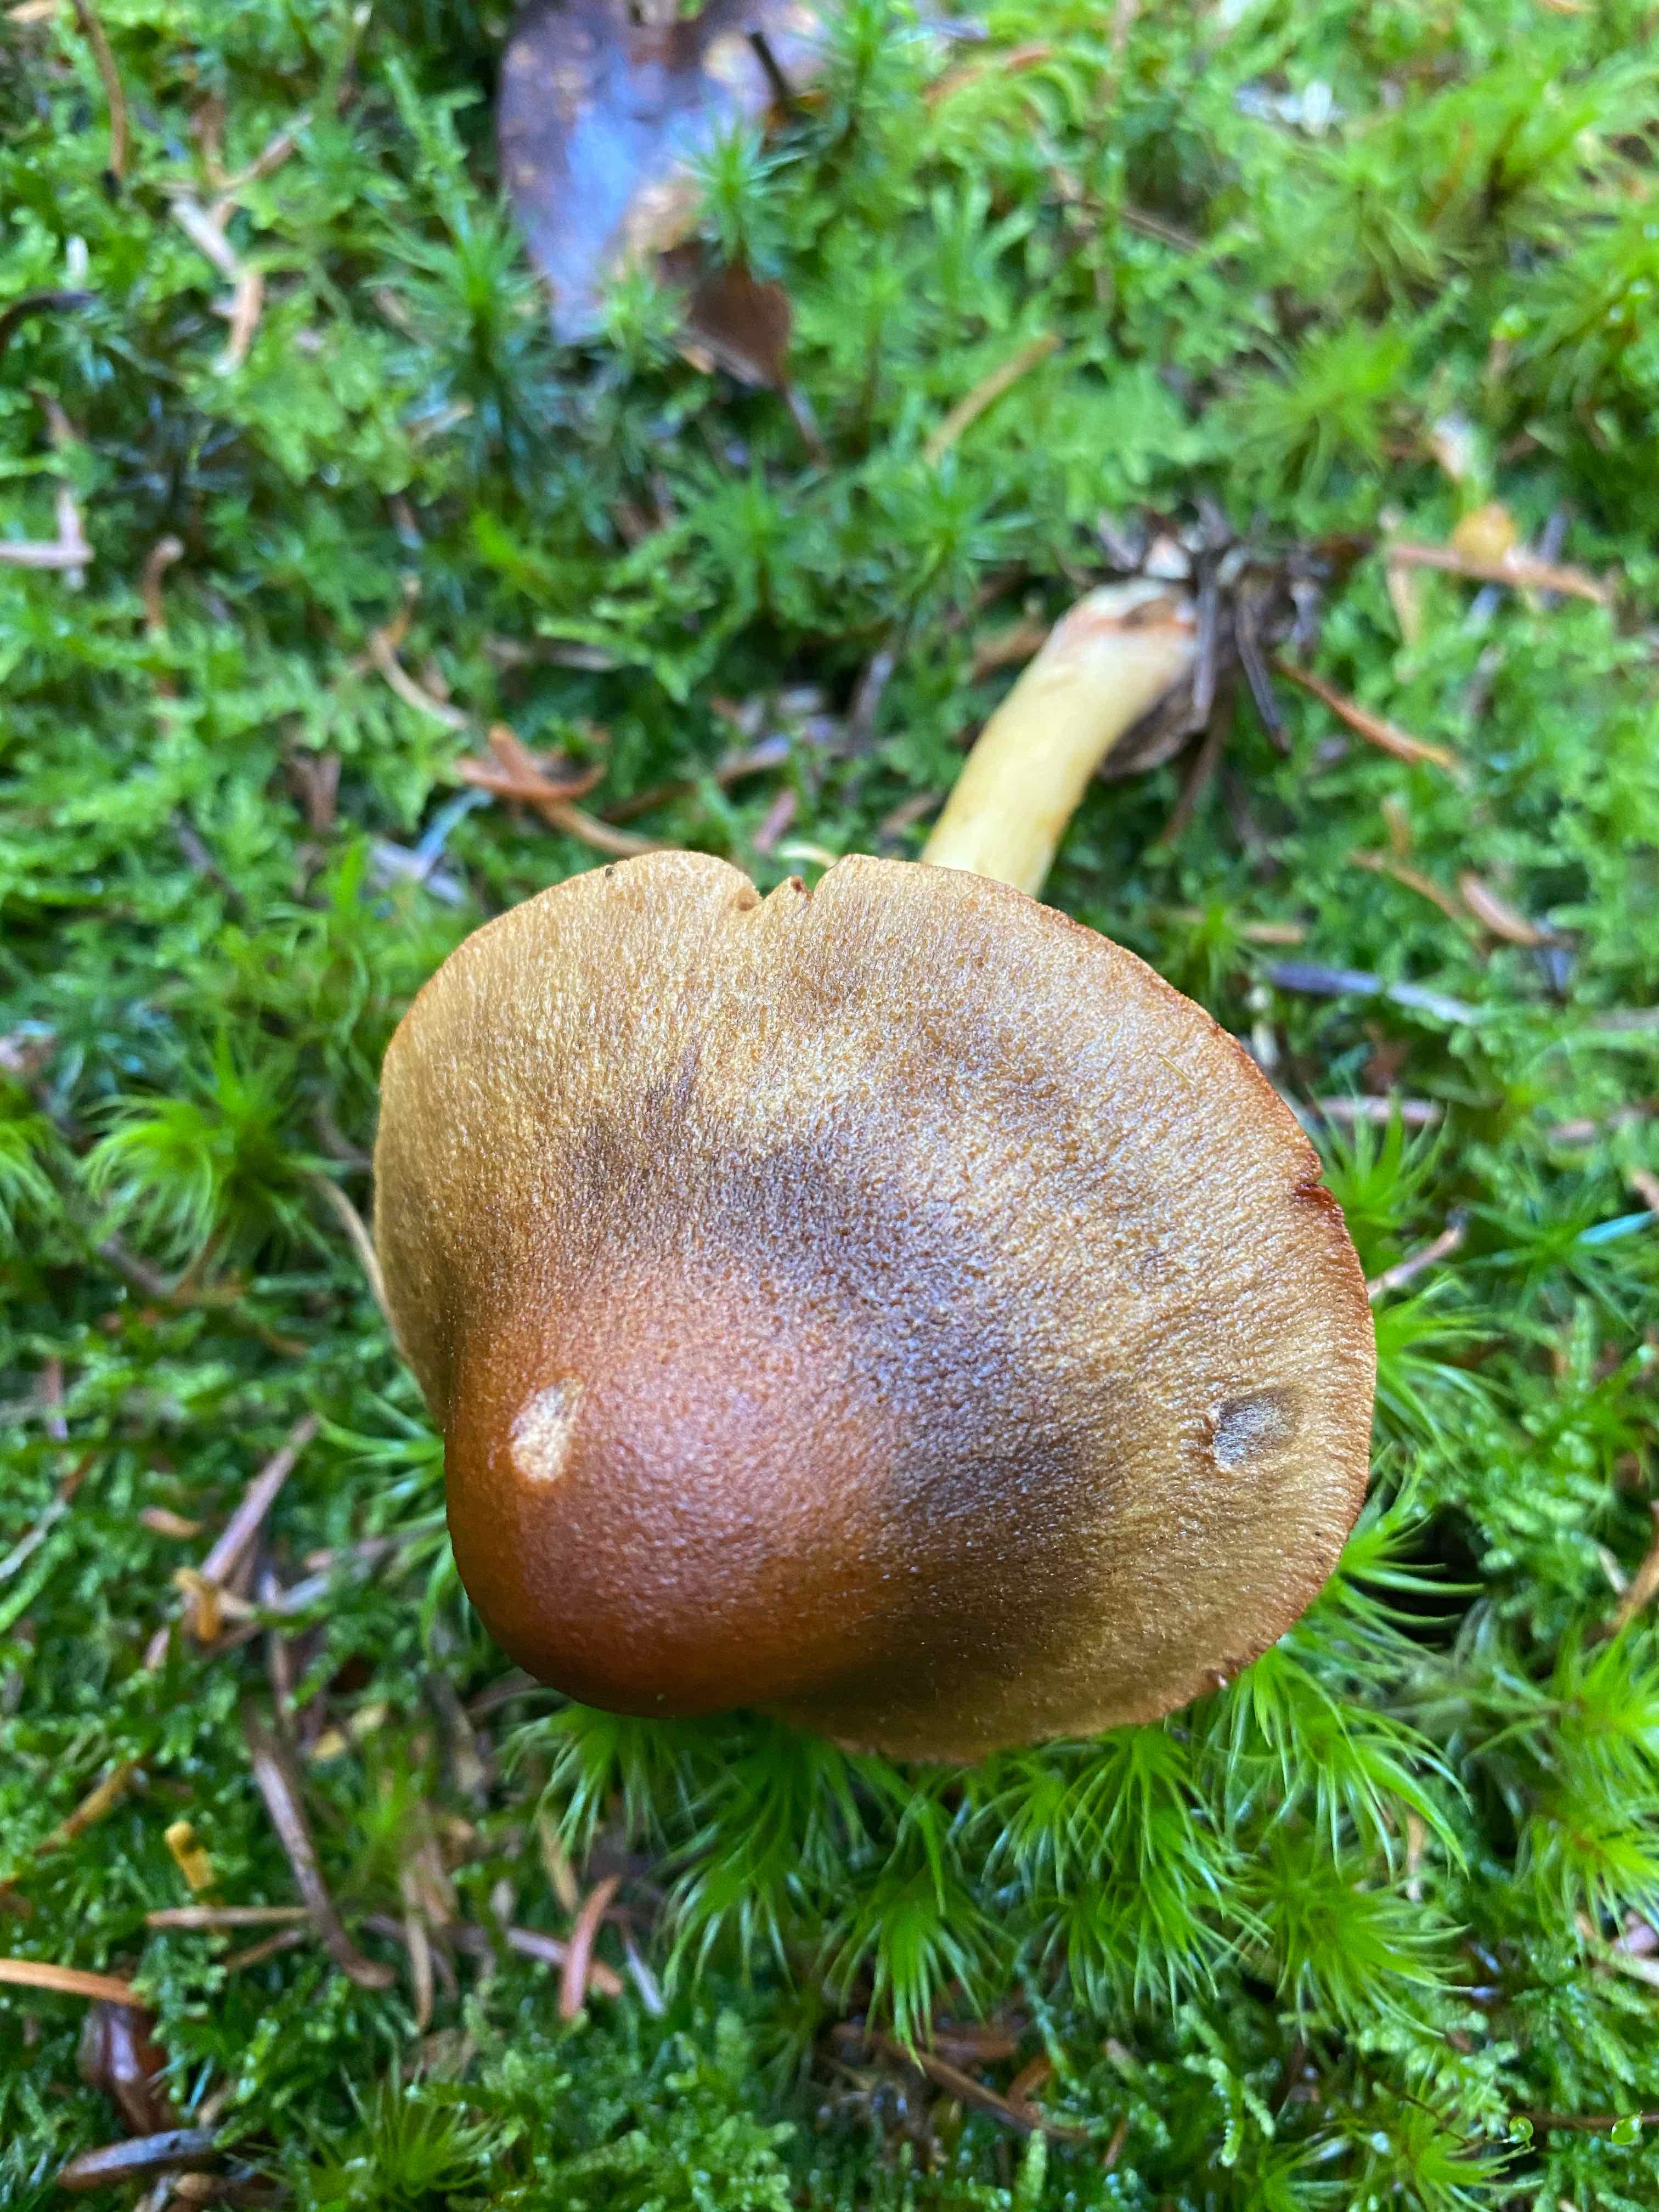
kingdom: Fungi
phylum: Basidiomycota
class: Agaricomycetes
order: Agaricales
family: Cortinariaceae
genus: Cortinarius
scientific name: Cortinarius
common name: cinnoberbladet slørhat
